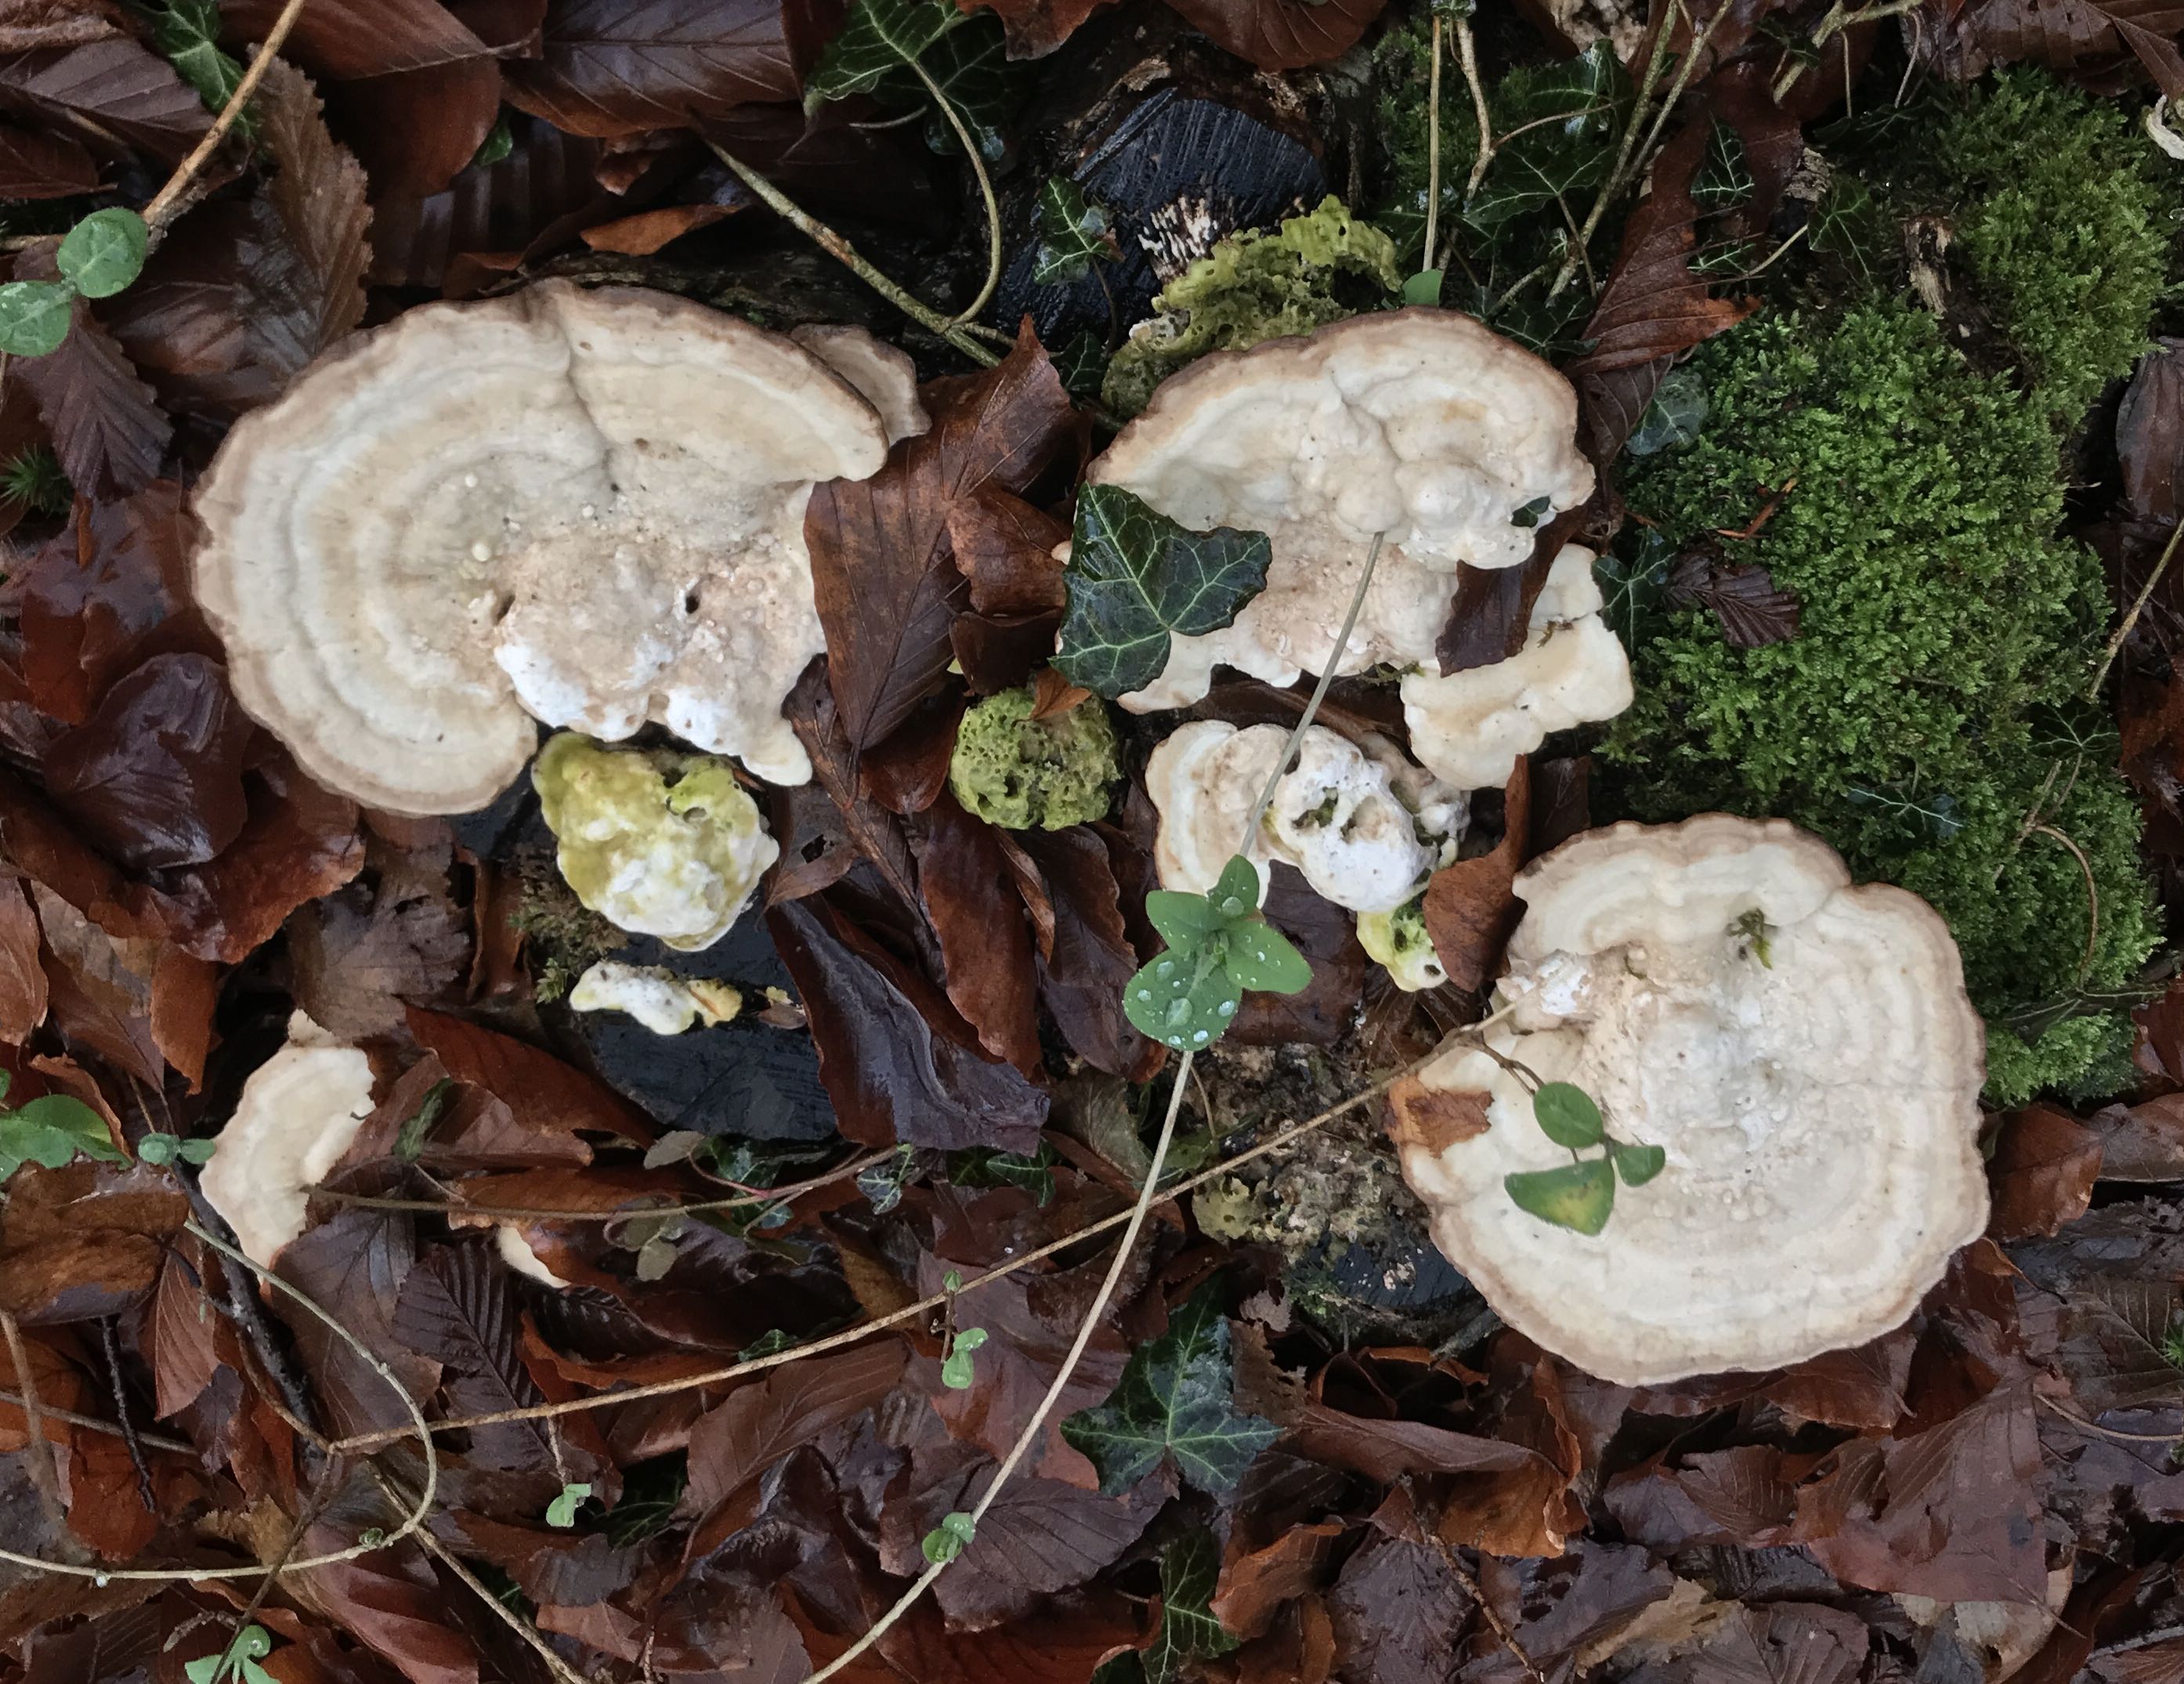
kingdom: Fungi
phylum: Basidiomycota
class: Agaricomycetes
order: Polyporales
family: Polyporaceae
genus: Trametes
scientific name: Trametes gibbosa
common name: puklet læderporesvamp
